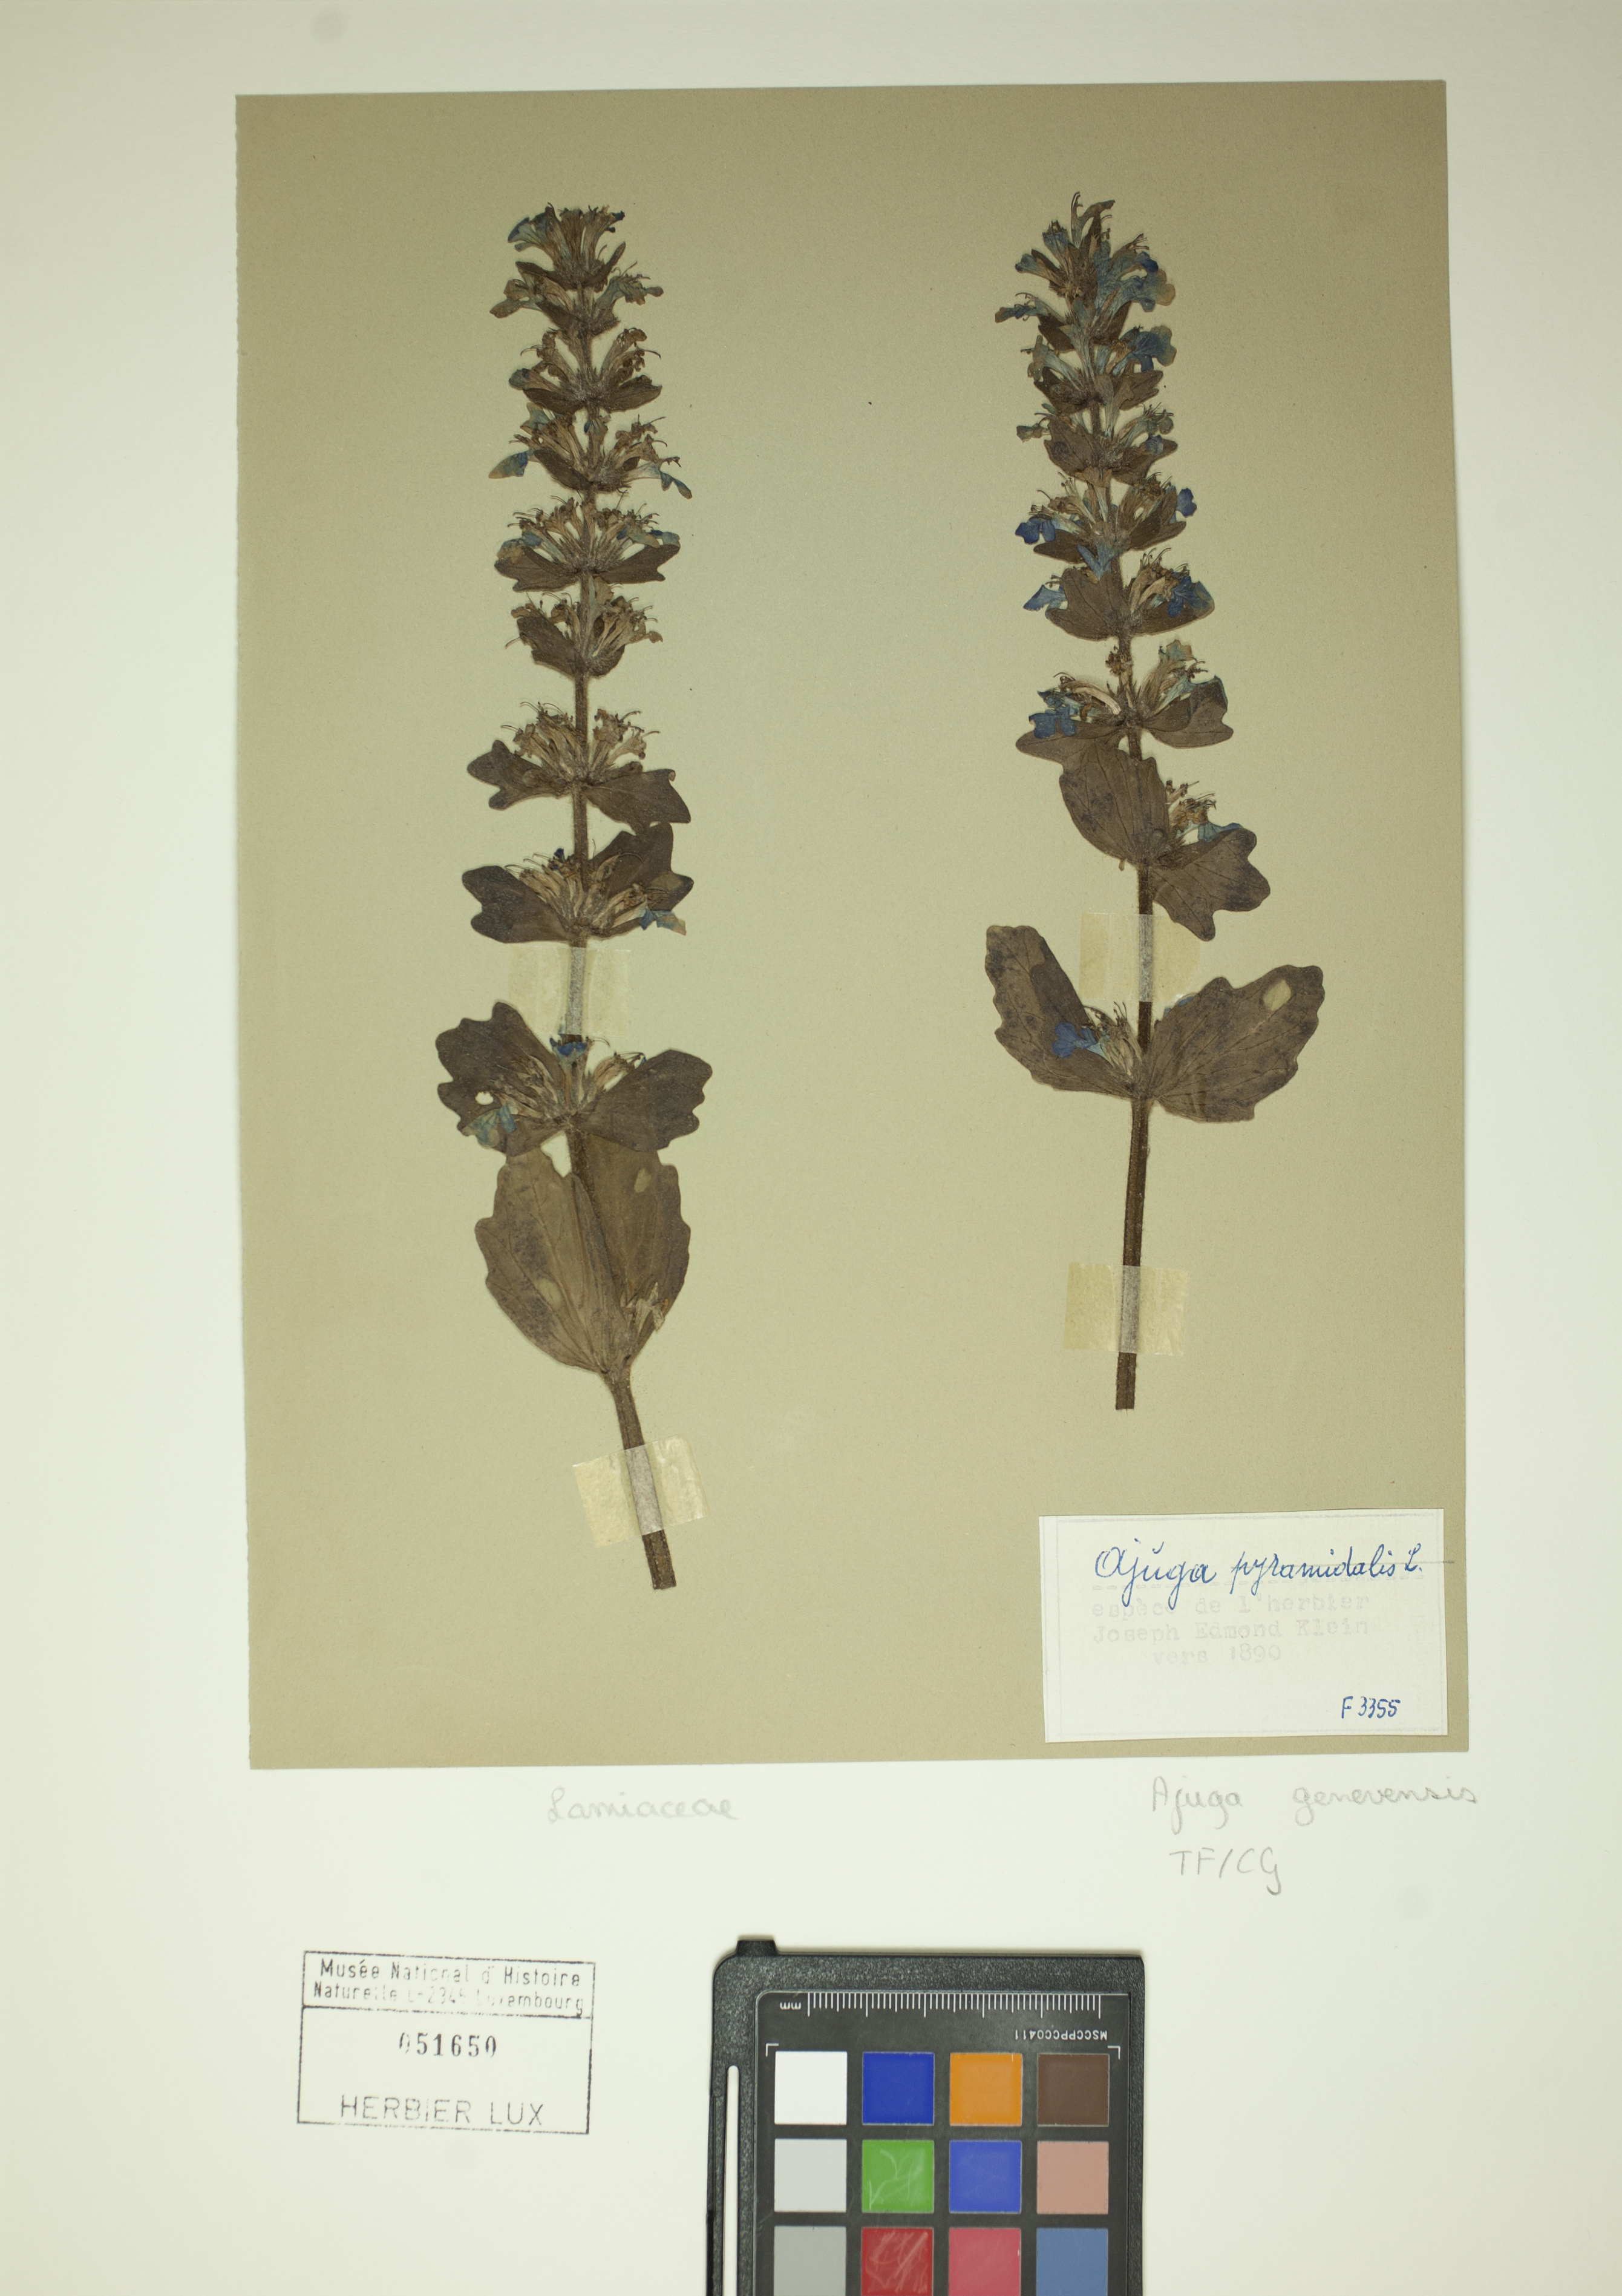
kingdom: Plantae
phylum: Tracheophyta
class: Magnoliopsida
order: Lamiales
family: Lamiaceae
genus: Ajuga
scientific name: Ajuga genevensis
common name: Blue bugle
